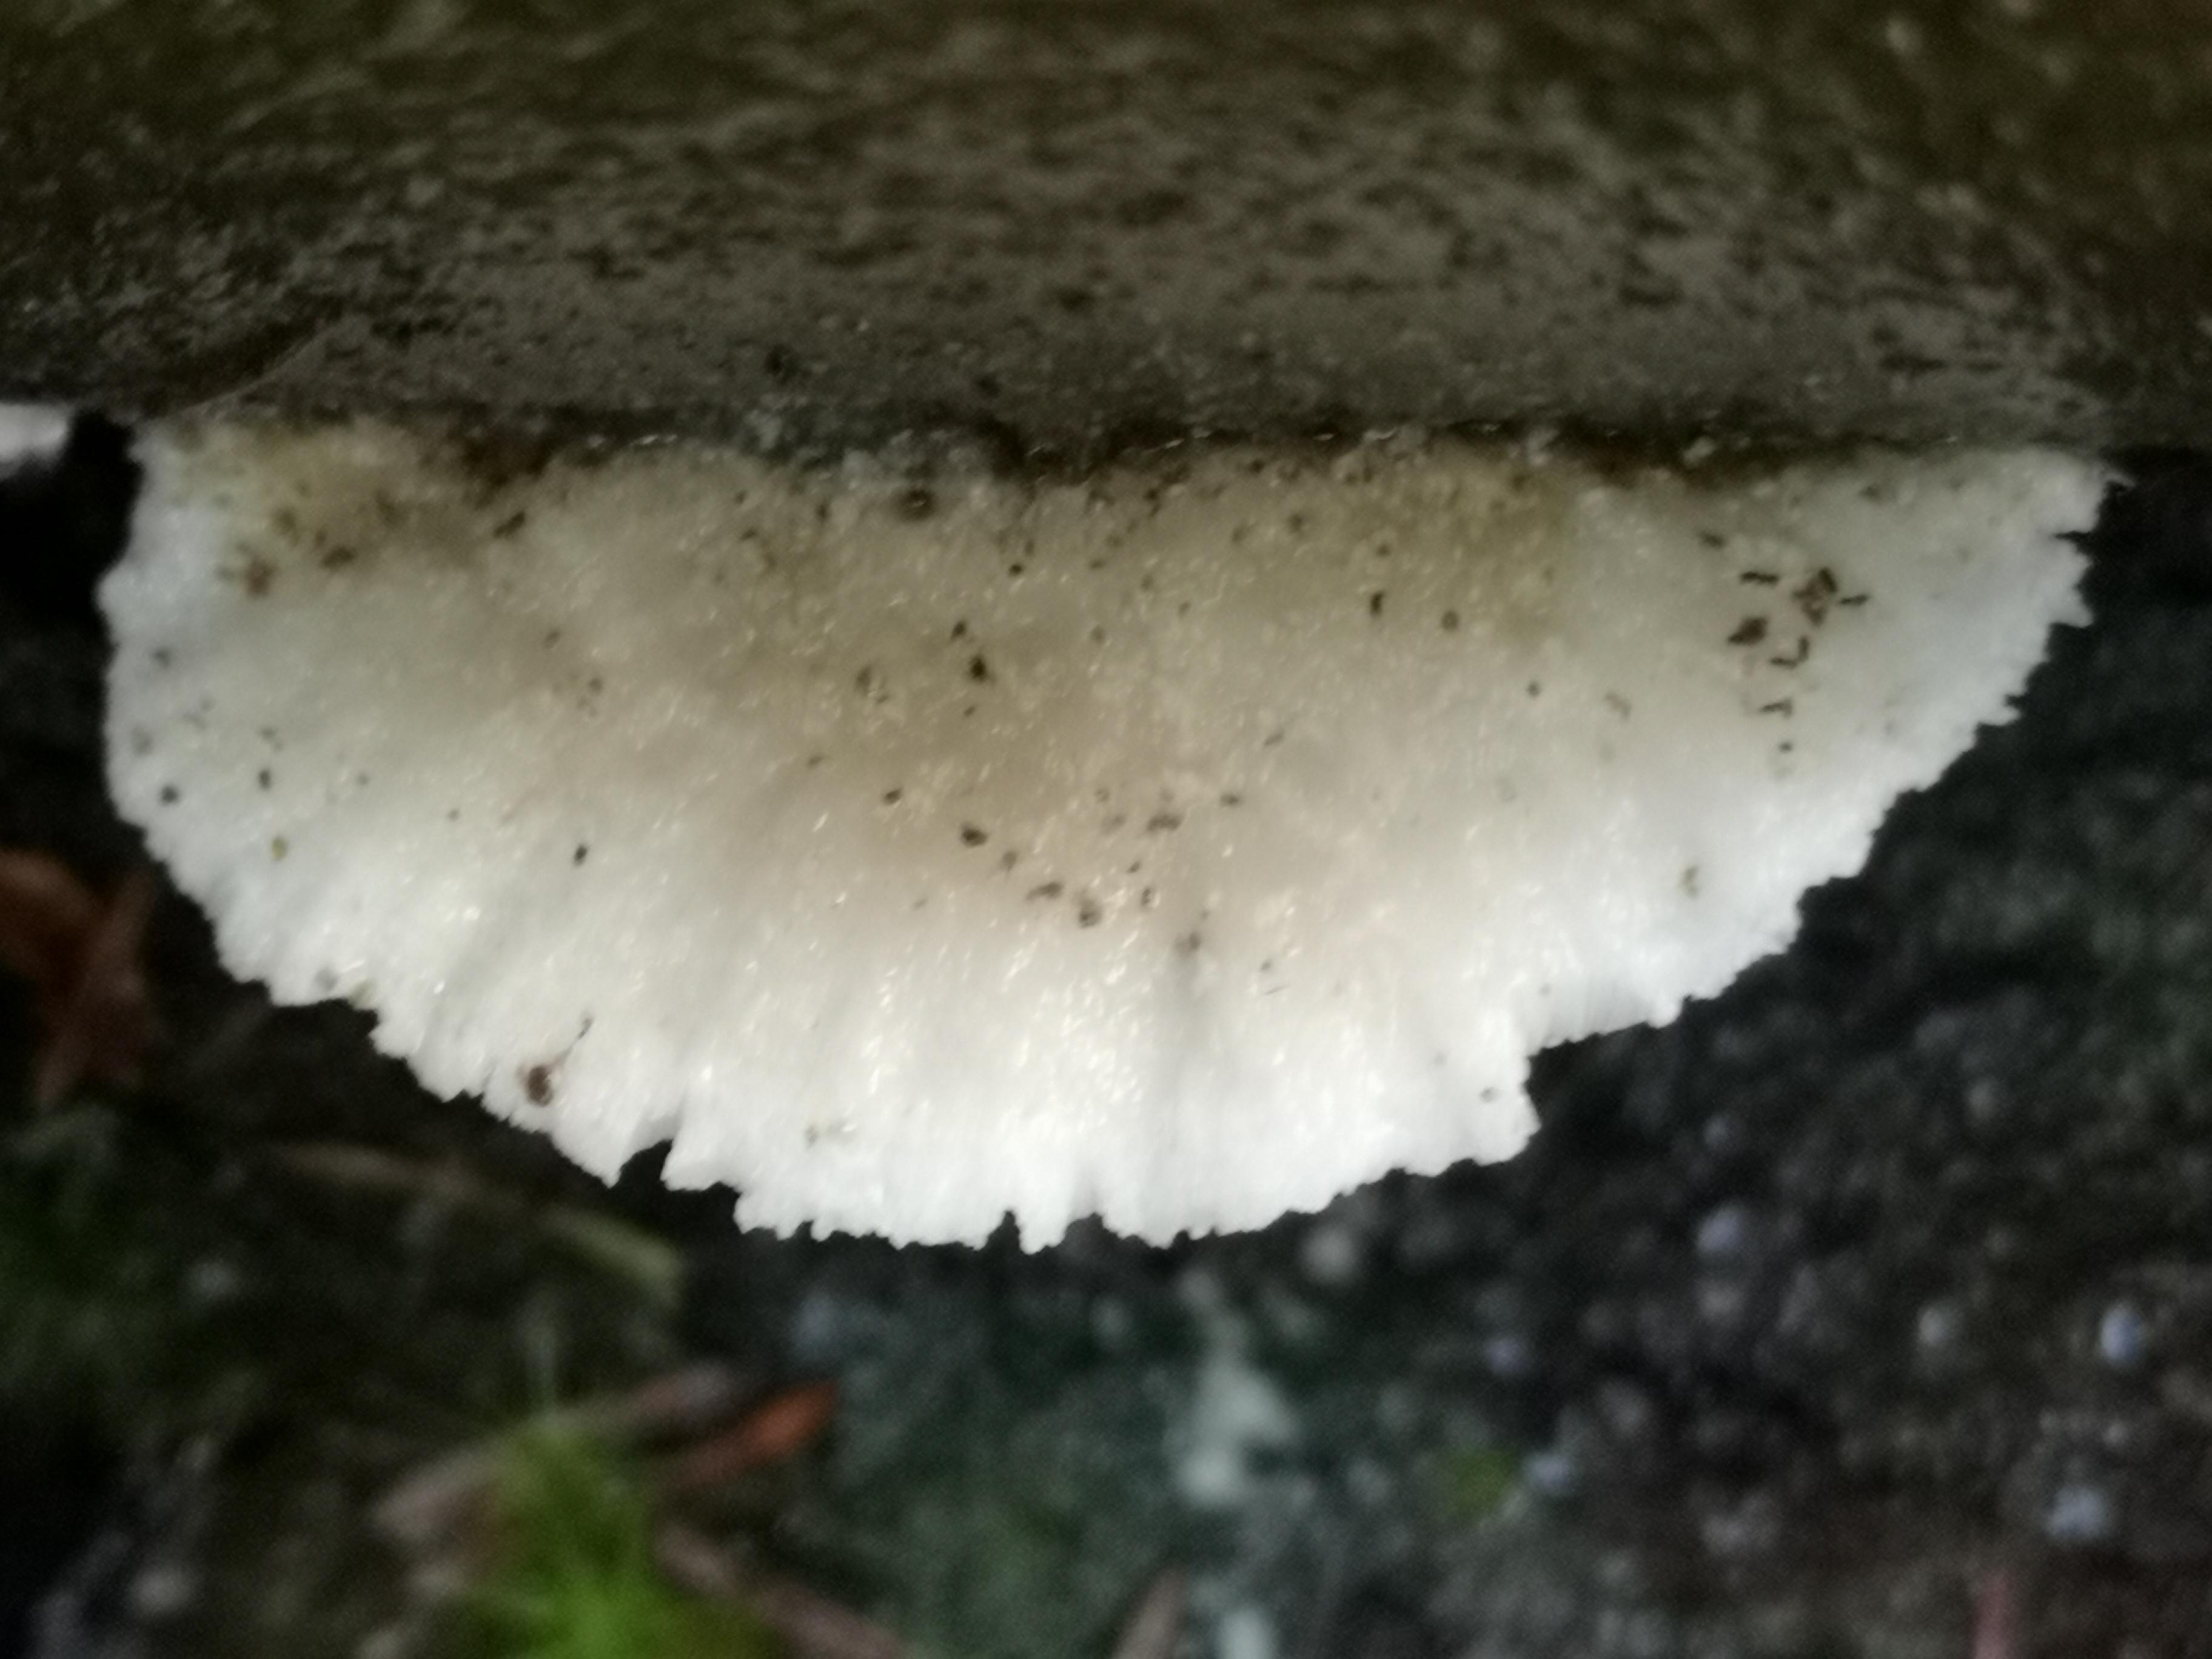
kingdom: Fungi
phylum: Basidiomycota
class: Agaricomycetes
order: Polyporales
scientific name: Polyporales
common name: poresvampordenen
